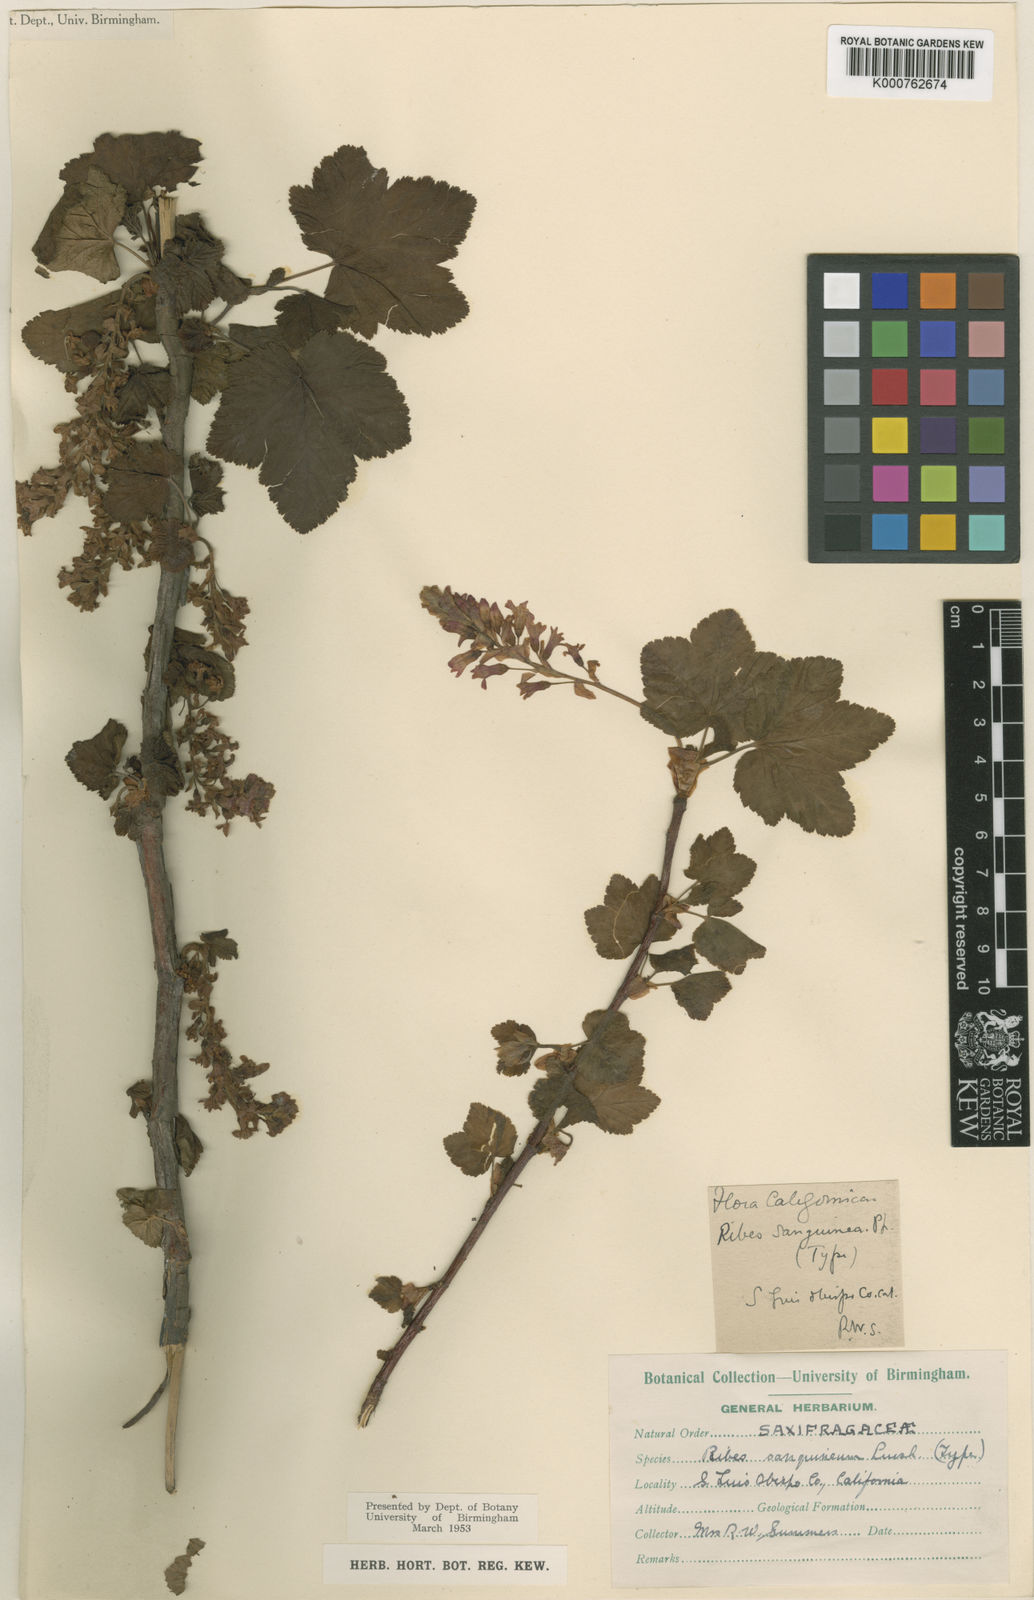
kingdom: Plantae
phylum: Tracheophyta
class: Magnoliopsida
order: Saxifragales
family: Grossulariaceae
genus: Ribes
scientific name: Ribes sanguineum
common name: Flowering currant
